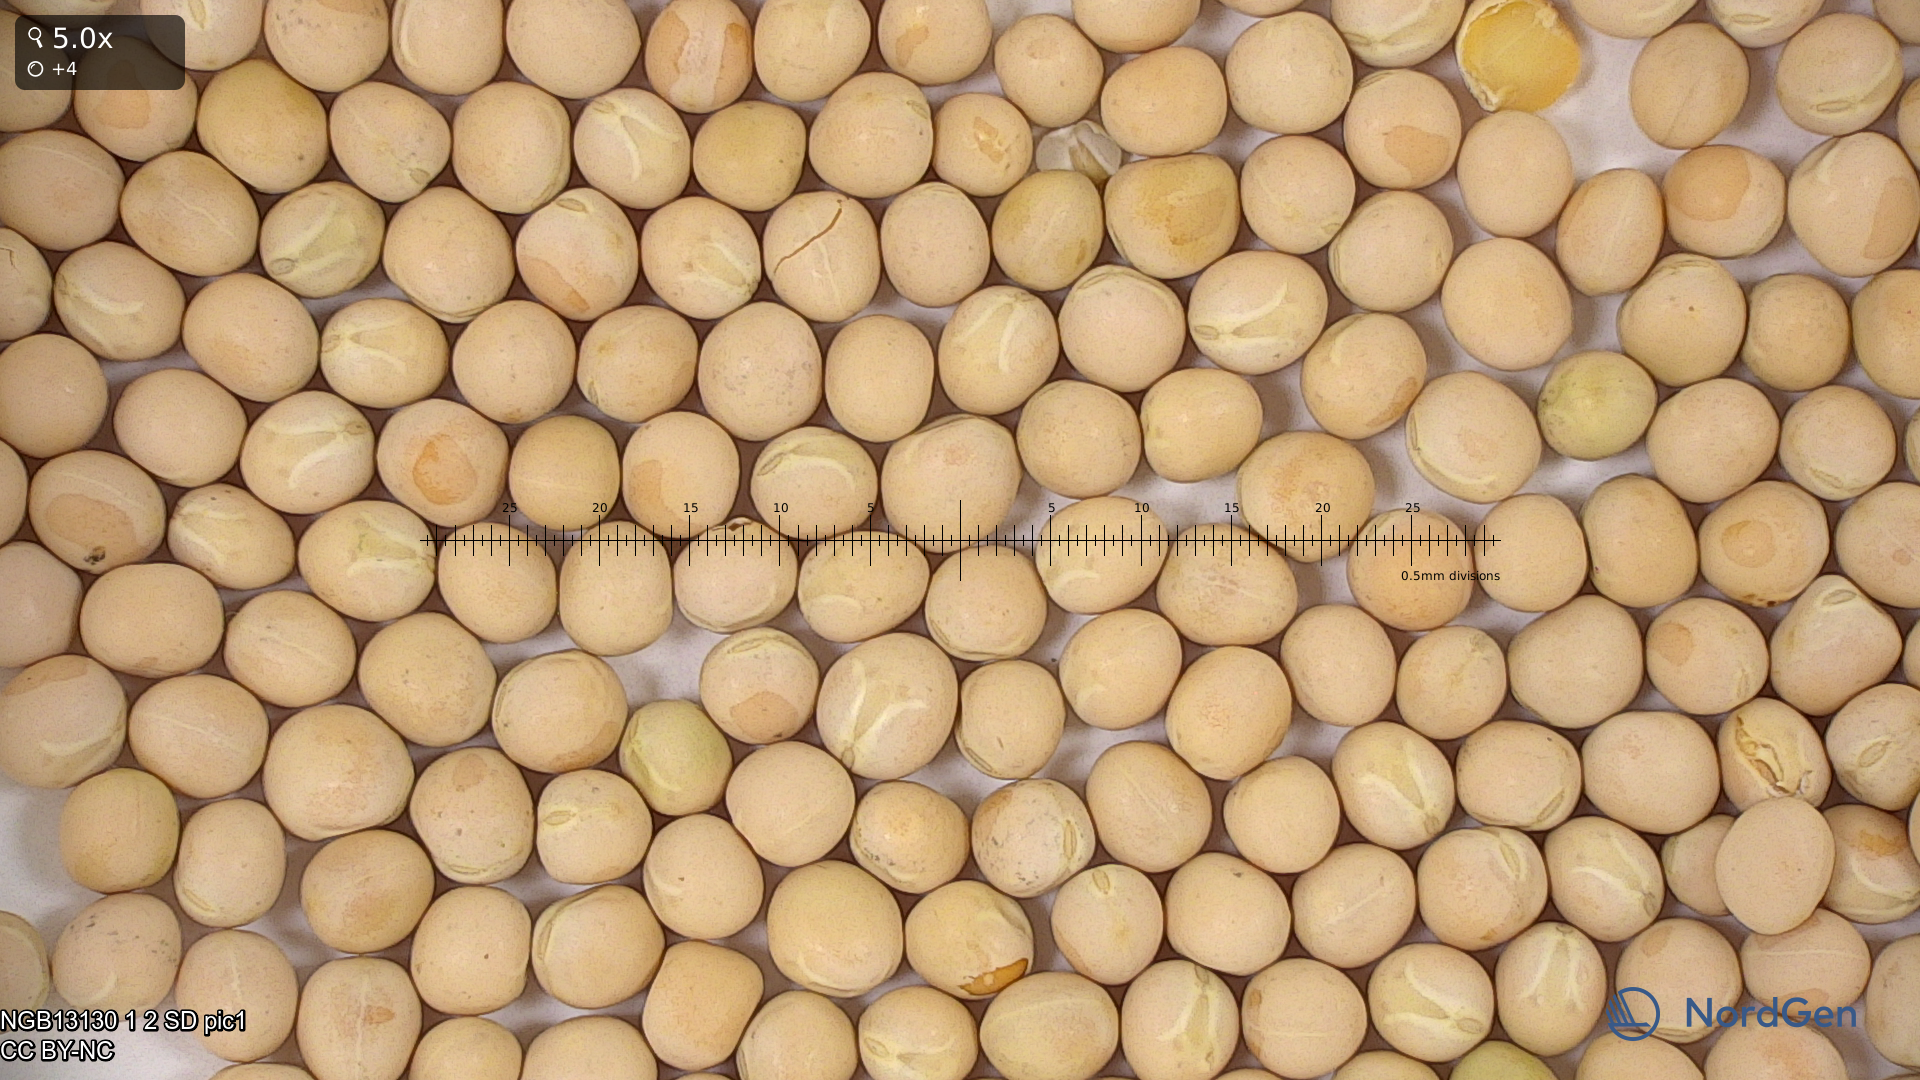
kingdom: Plantae
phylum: Tracheophyta
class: Magnoliopsida
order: Fabales
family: Fabaceae
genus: Lathyrus
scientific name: Lathyrus oleraceus
